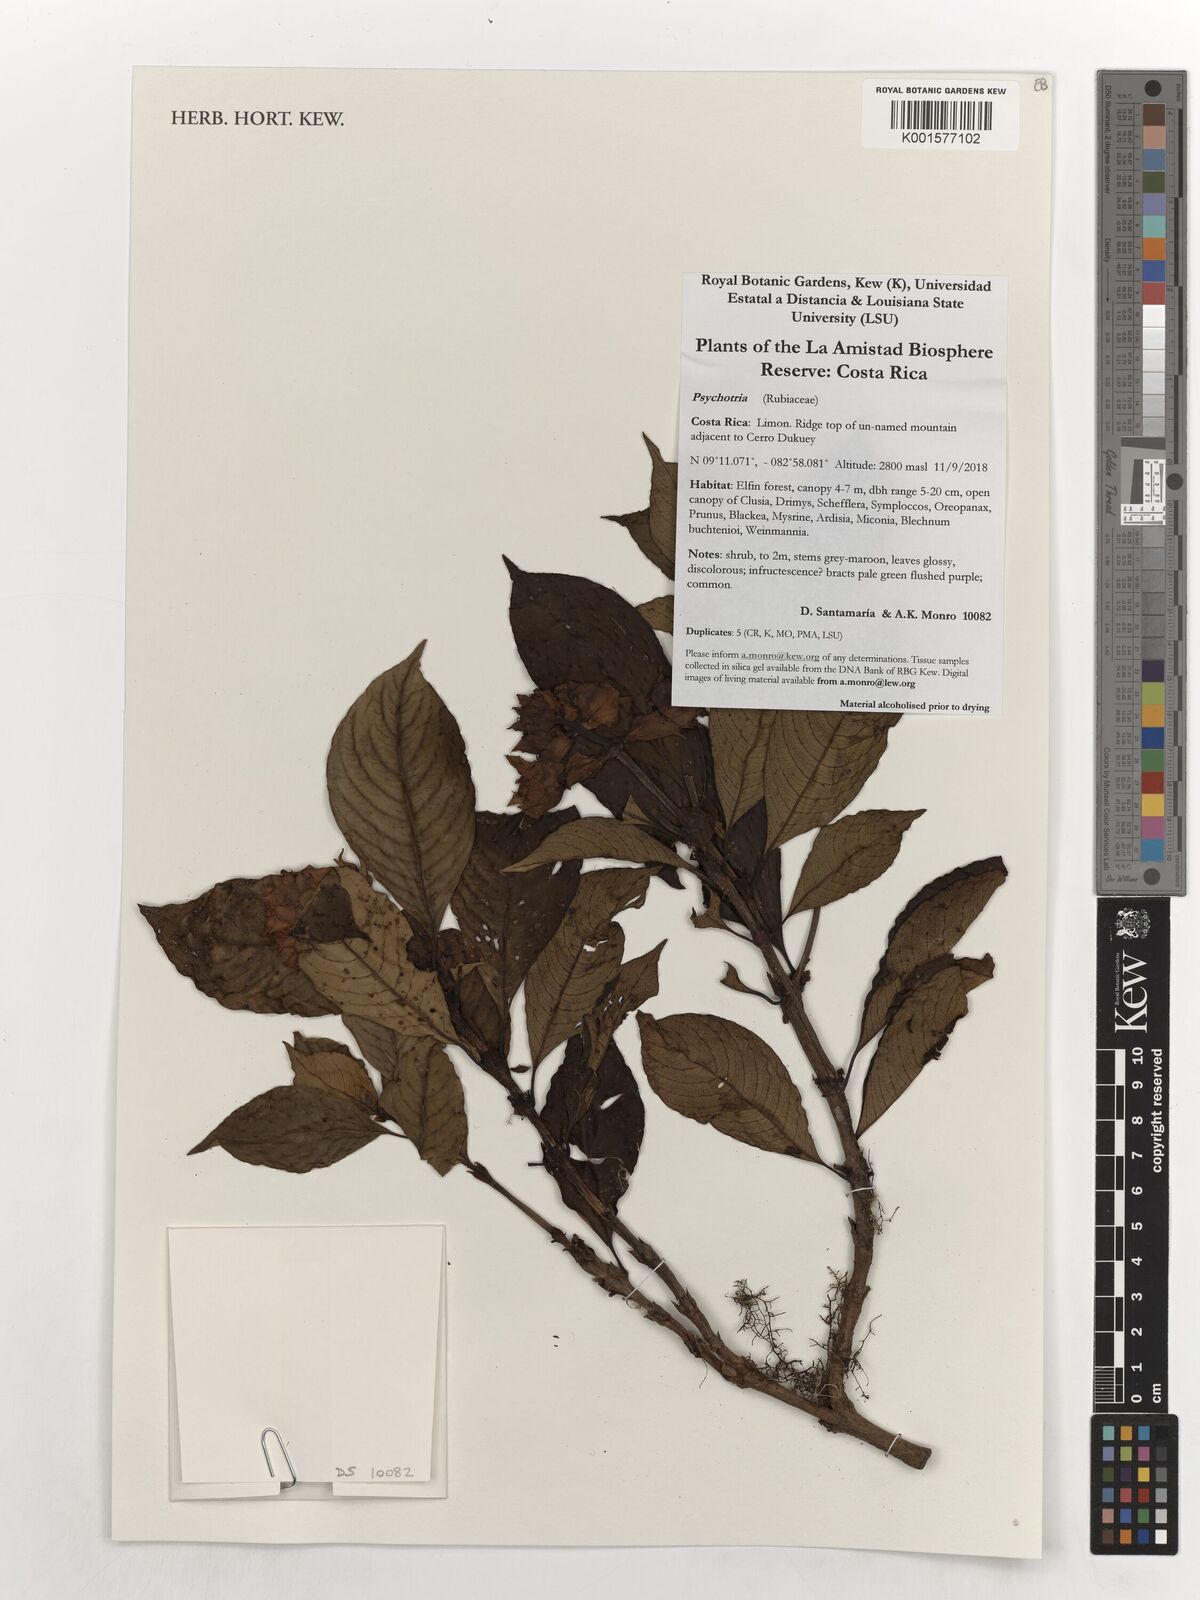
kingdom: Plantae
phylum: Tracheophyta
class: Magnoliopsida
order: Gentianales
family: Rubiaceae
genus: Psychotria
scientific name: Psychotria
